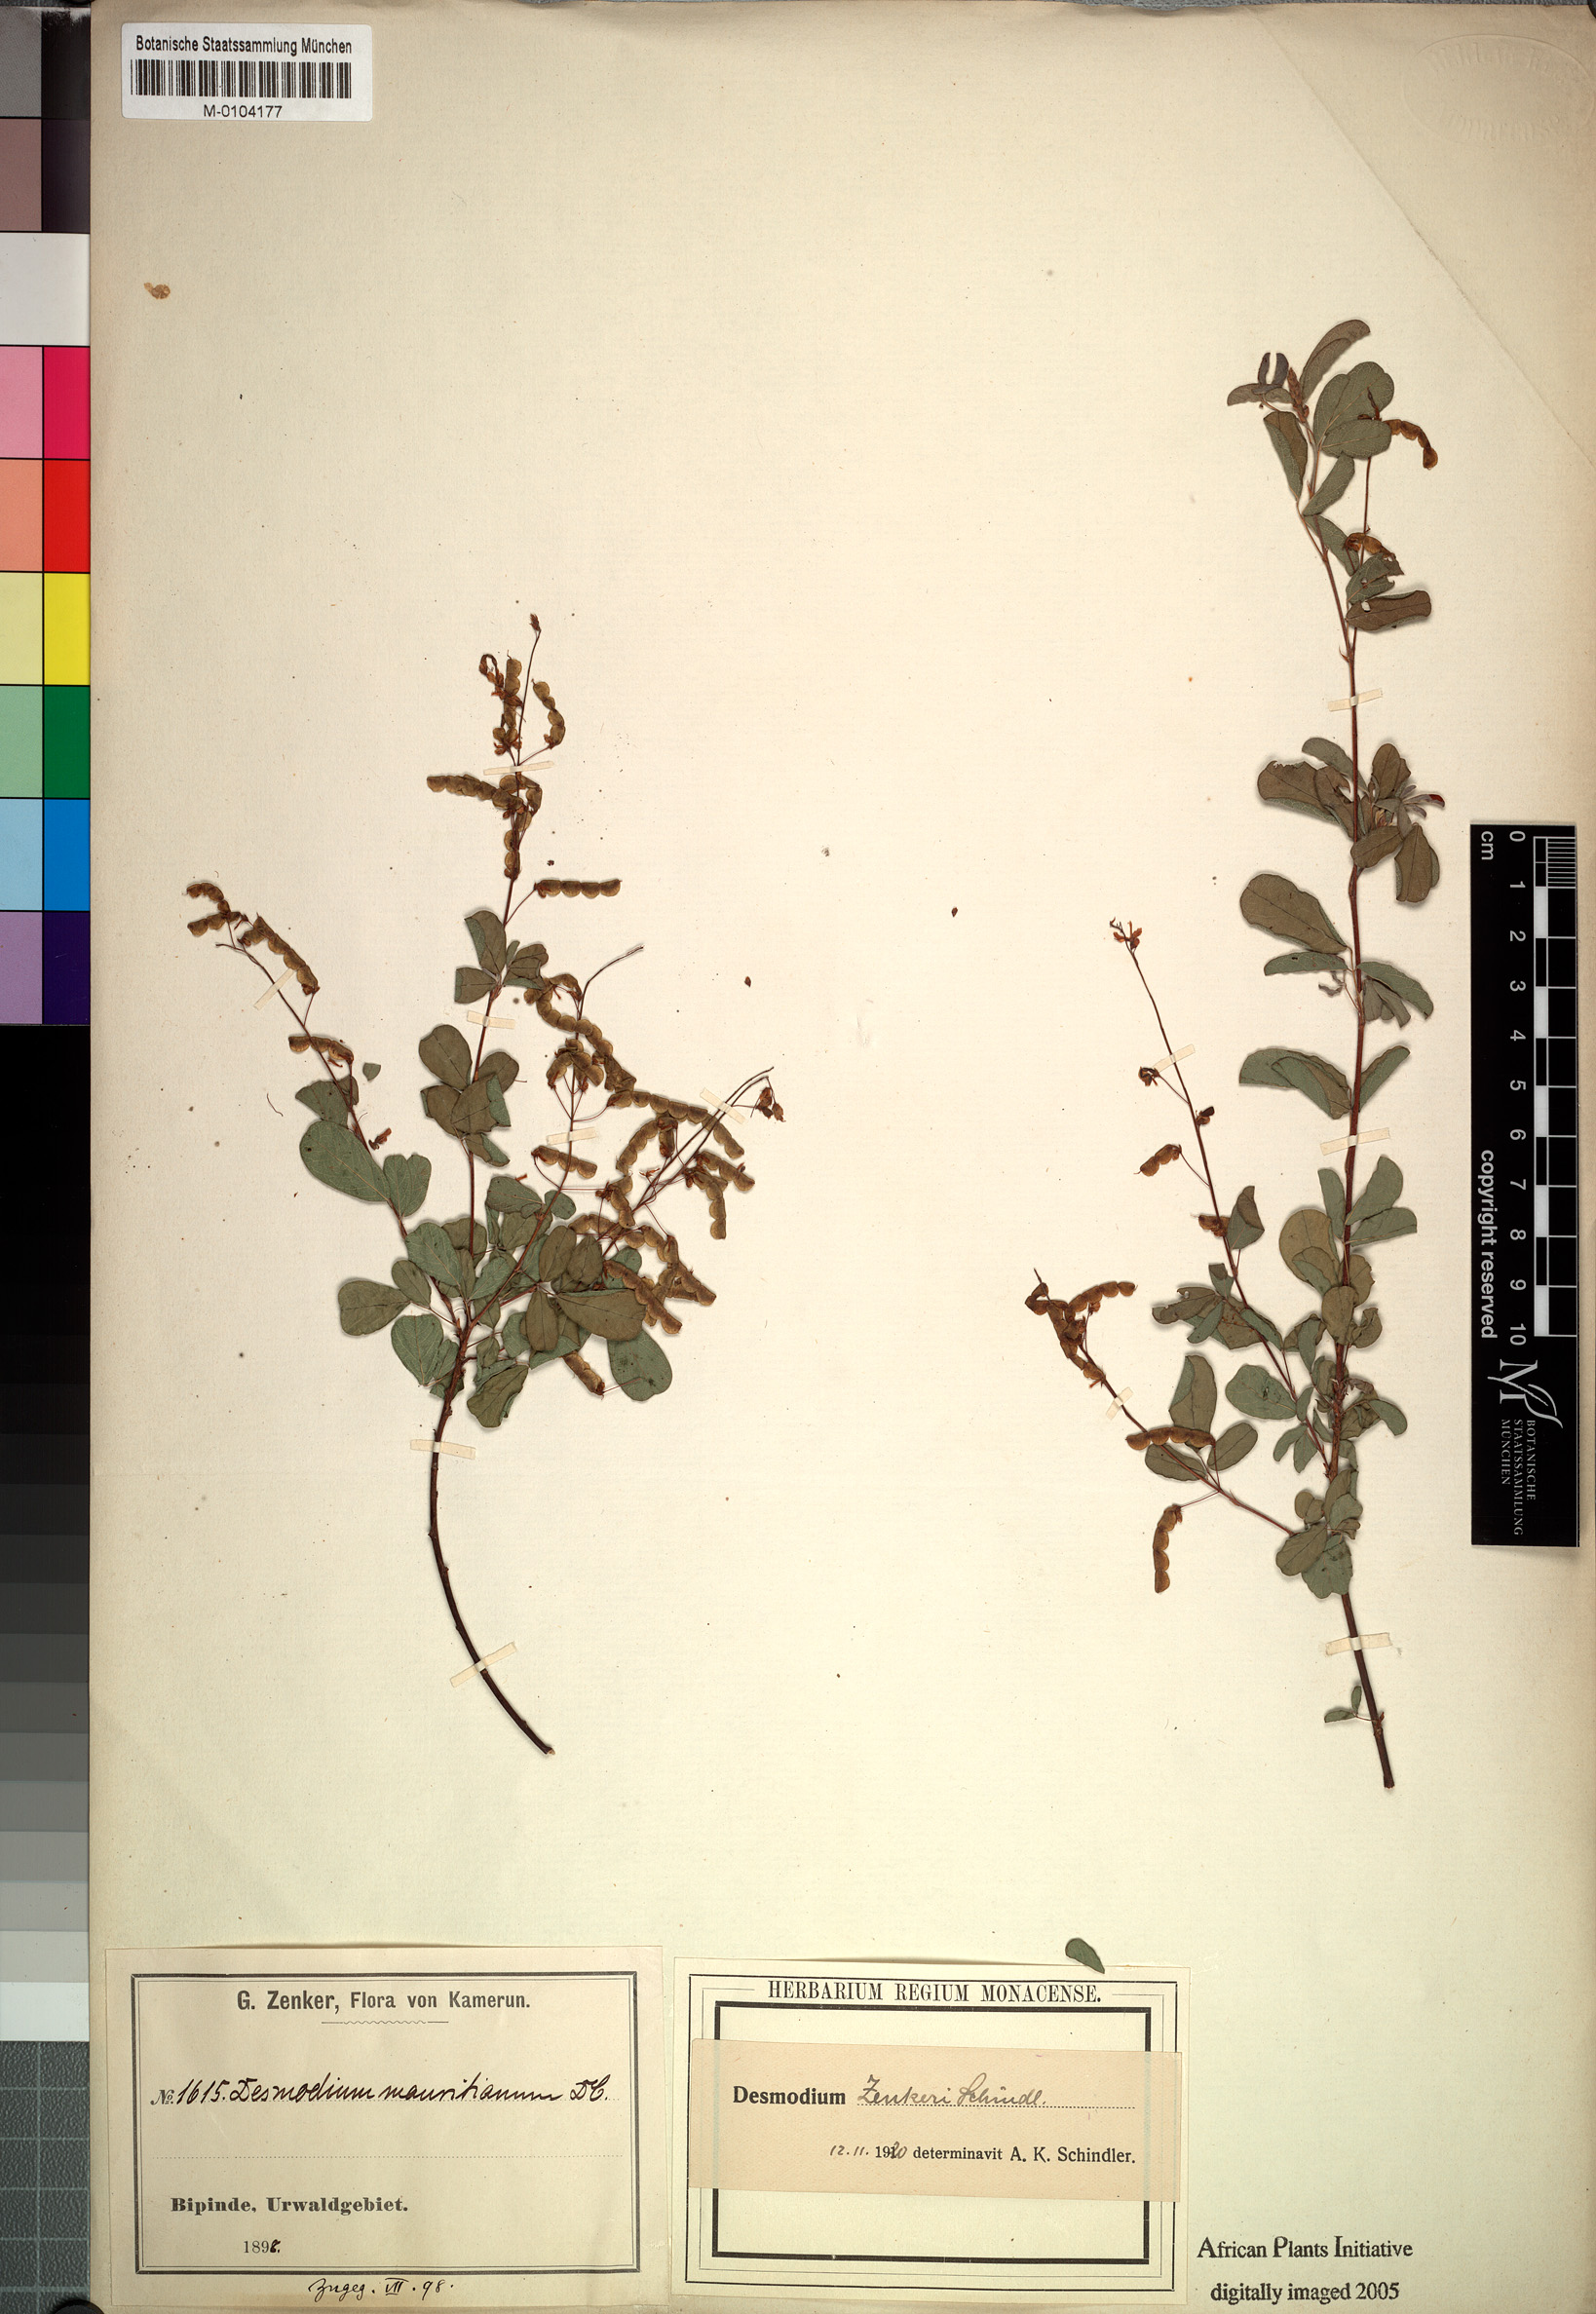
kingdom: Plantae
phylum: Tracheophyta
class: Magnoliopsida
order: Fabales
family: Fabaceae
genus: Grona
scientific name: Grona zenkeri
